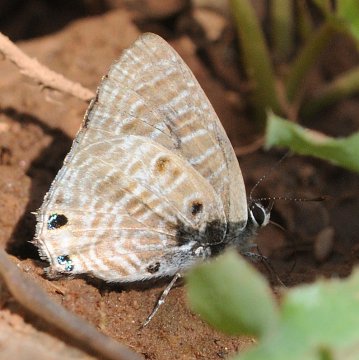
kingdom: Animalia
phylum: Arthropoda
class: Insecta
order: Lepidoptera
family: Lycaenidae
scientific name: Lycaenidae
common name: Gossamerwings
